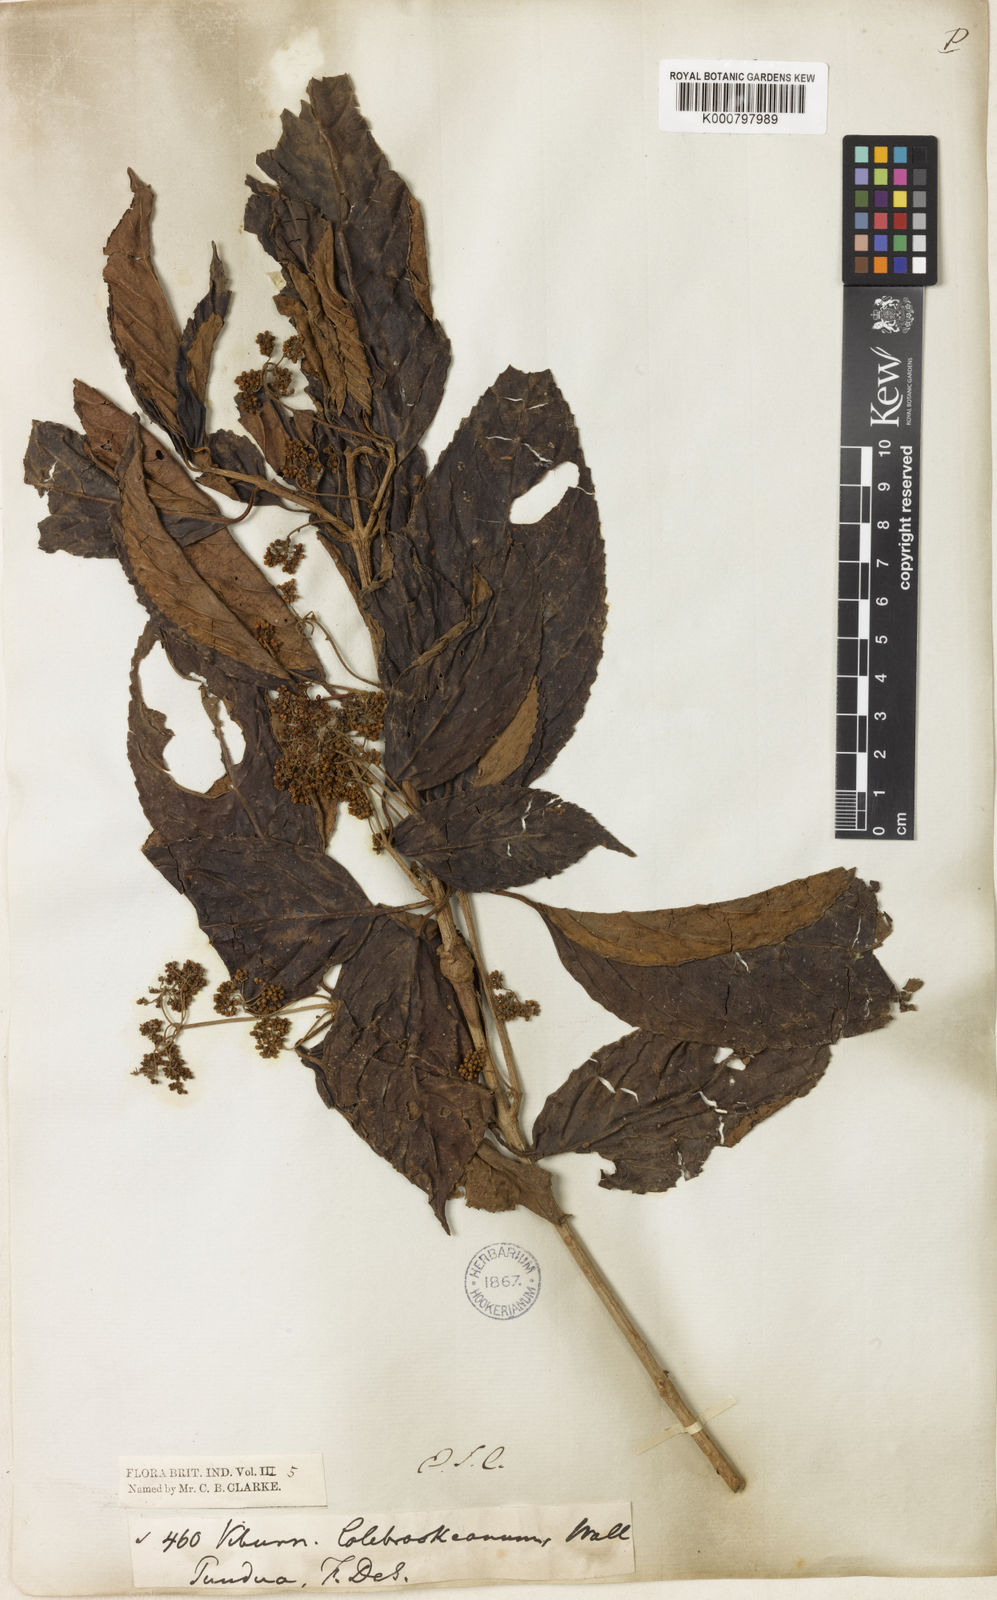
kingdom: Plantae
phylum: Tracheophyta
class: Magnoliopsida
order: Dipsacales
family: Viburnaceae
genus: Viburnum
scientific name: Viburnum
